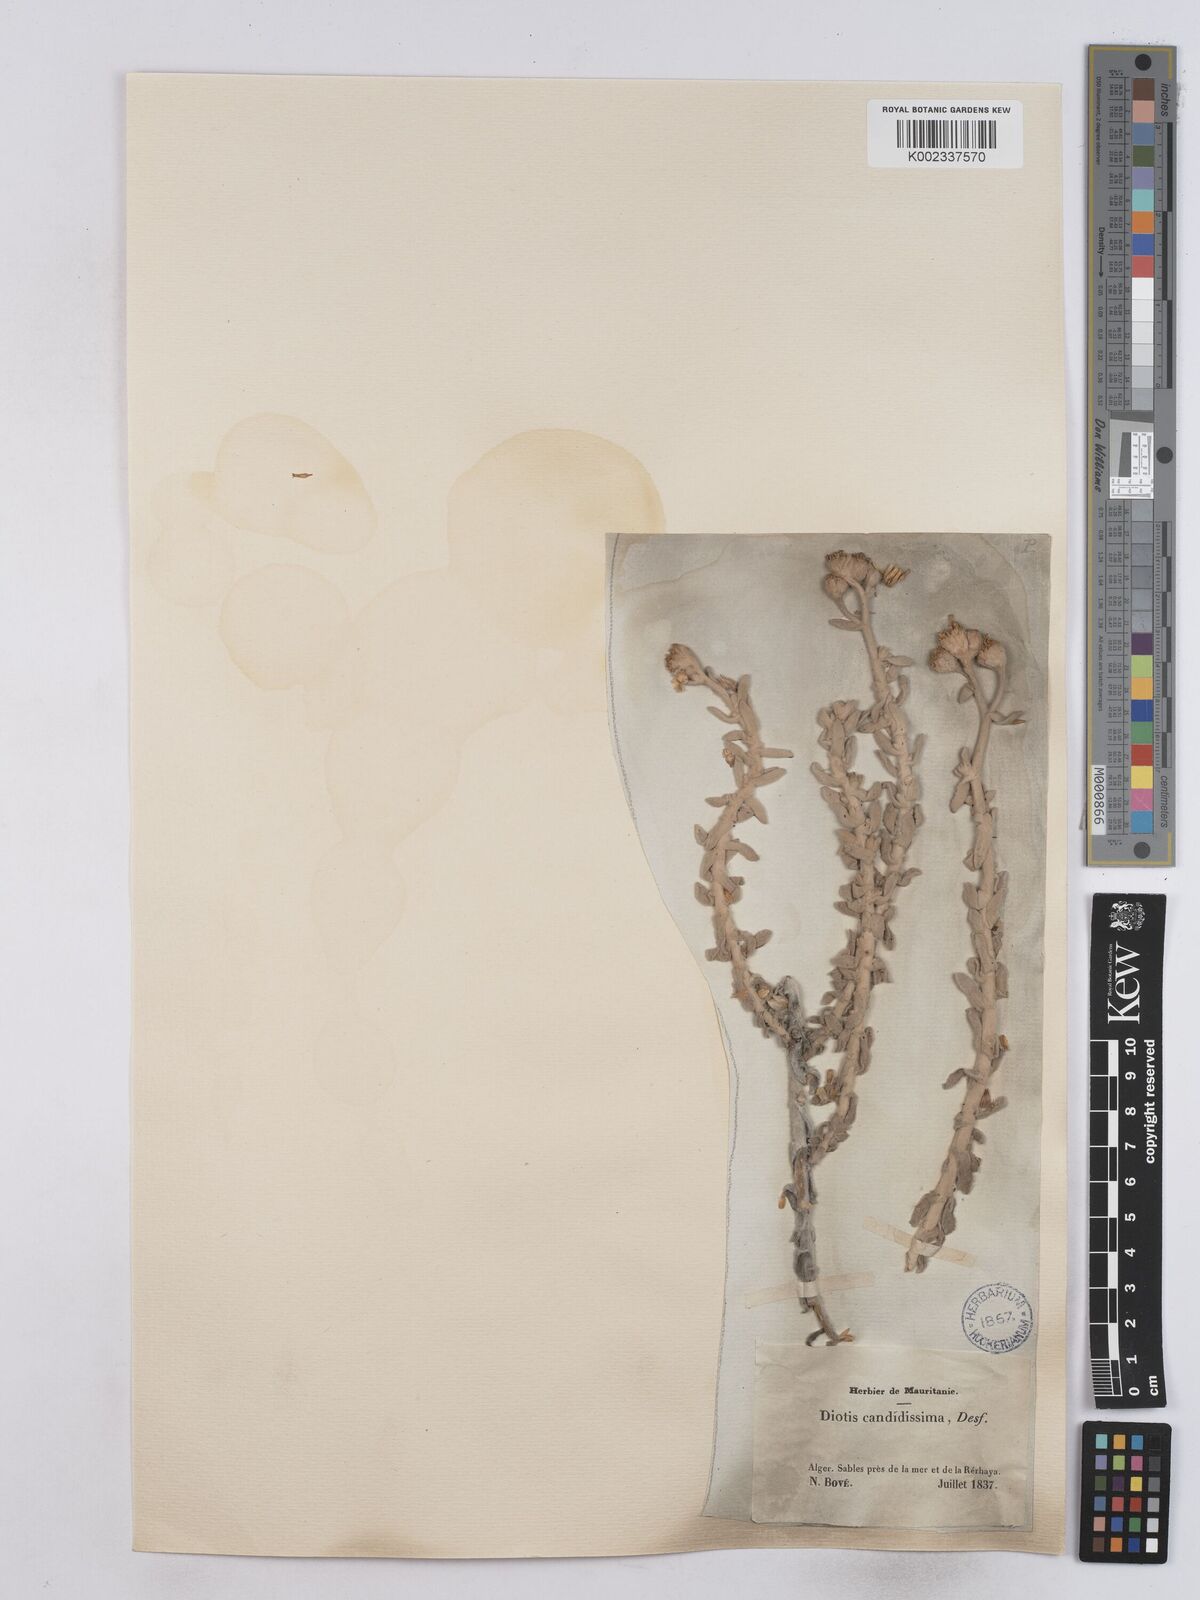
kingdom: Plantae
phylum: Tracheophyta
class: Magnoliopsida
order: Asterales
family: Asteraceae
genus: Achillea
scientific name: Achillea maritima
